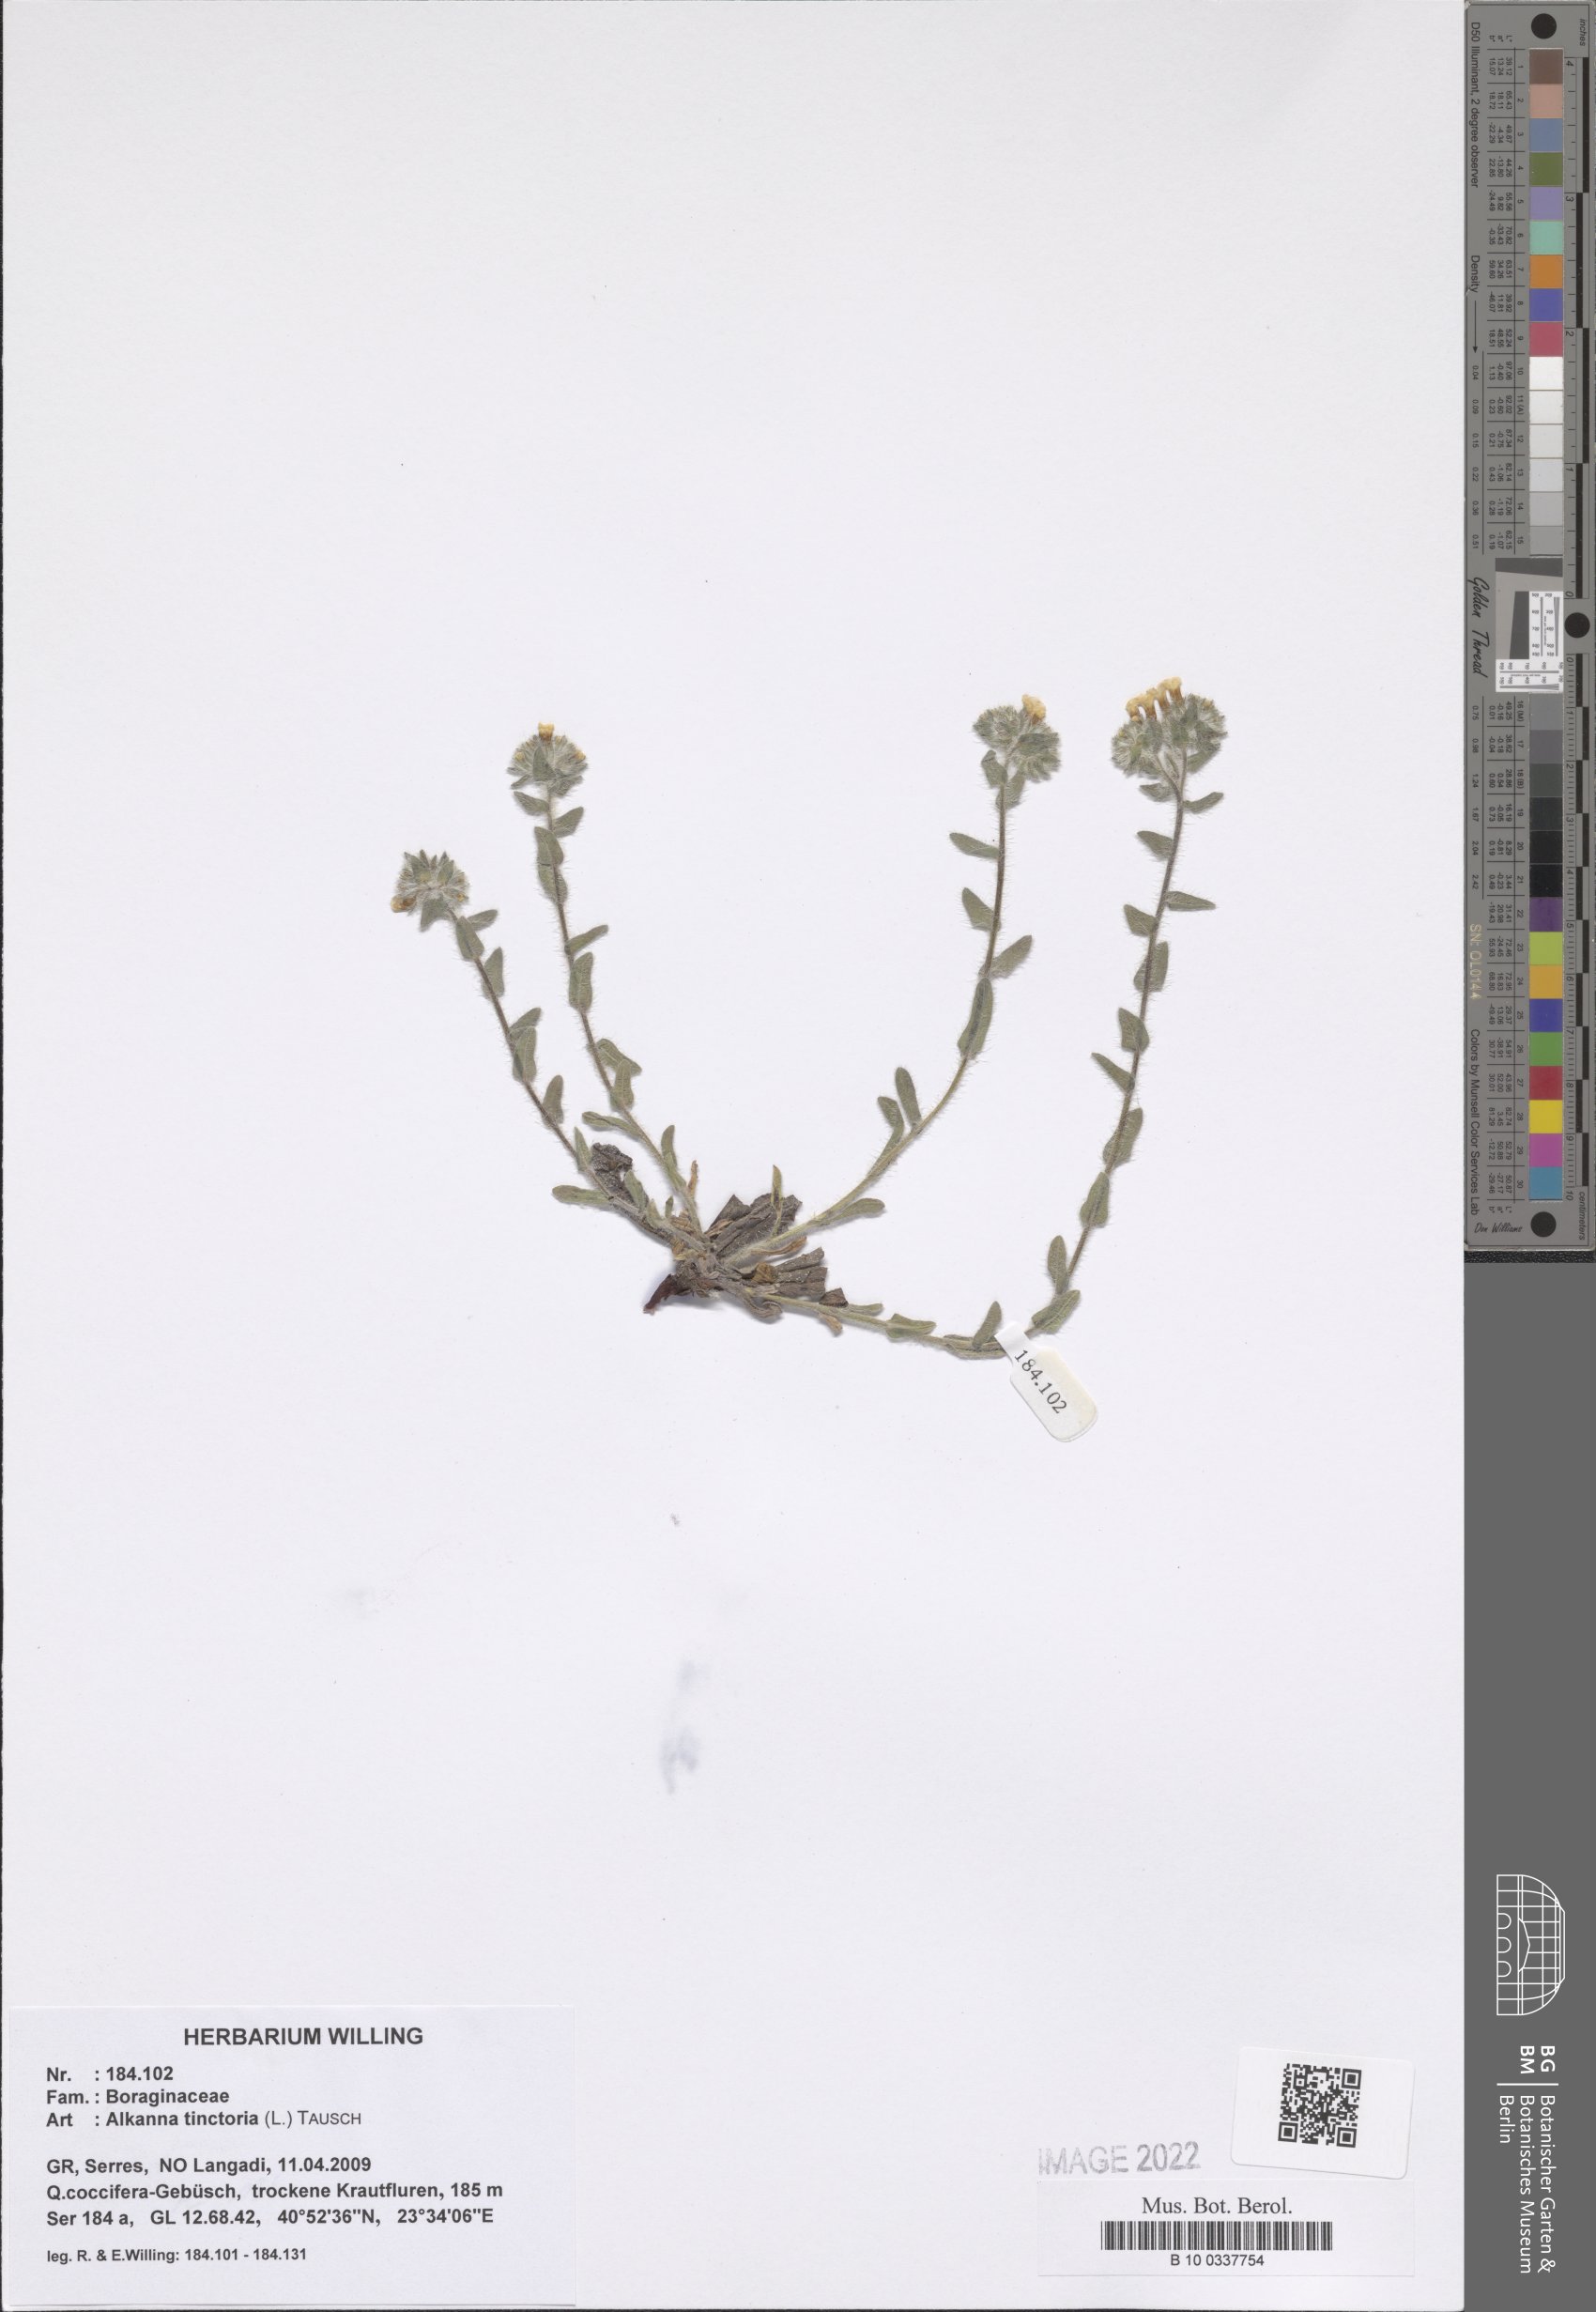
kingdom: Plantae
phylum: Tracheophyta
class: Magnoliopsida
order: Boraginales
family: Boraginaceae
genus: Alkanna
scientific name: Alkanna tinctoria
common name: Dyer's-alkanet
